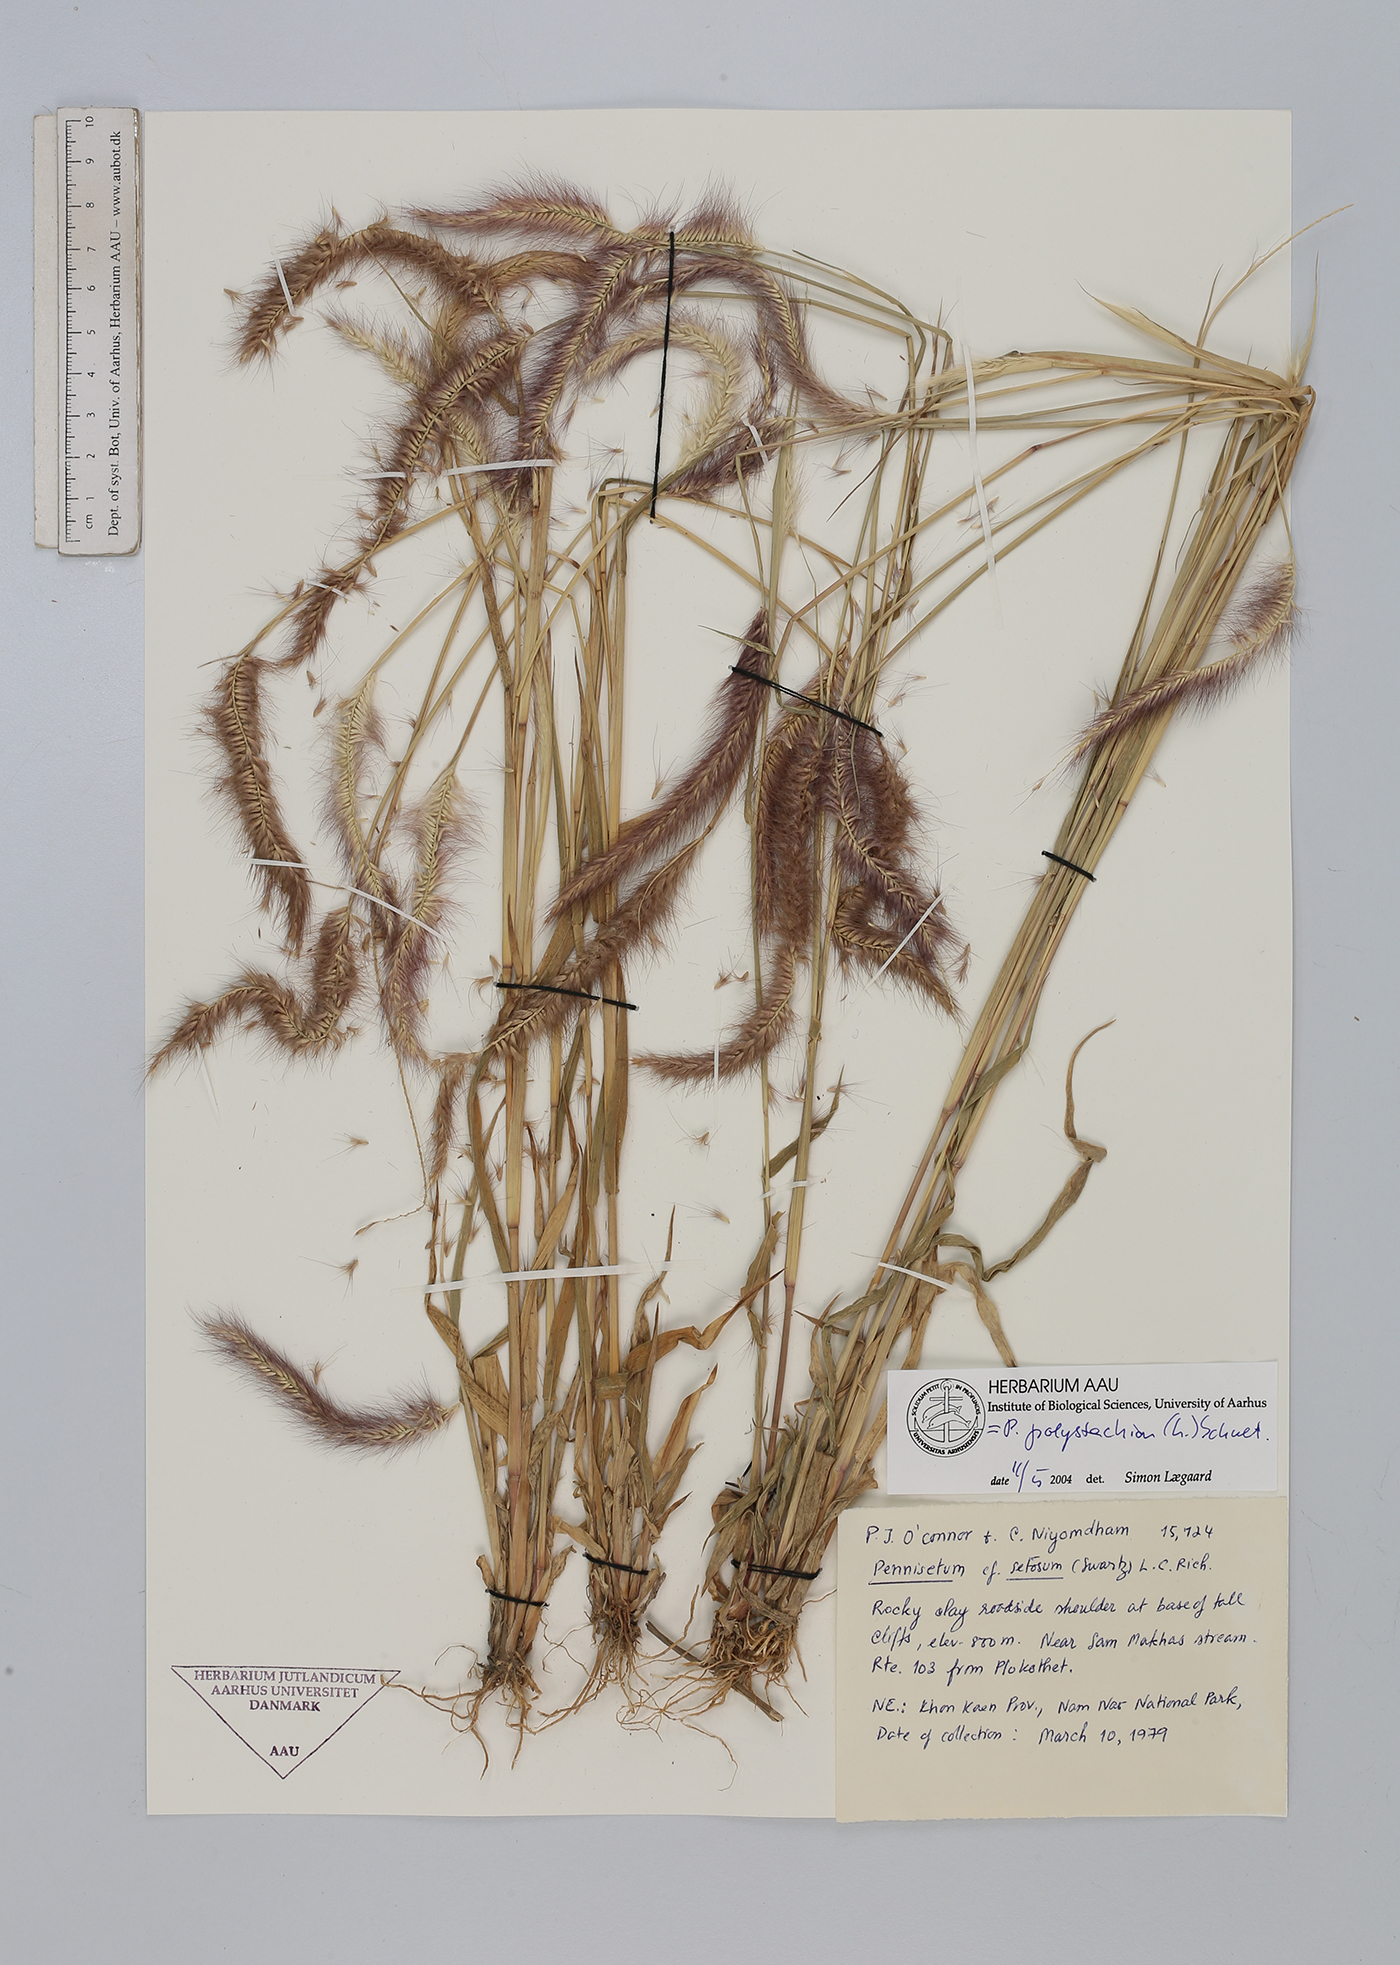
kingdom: Plantae
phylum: Tracheophyta
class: Liliopsida
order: Poales
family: Poaceae
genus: Setaria
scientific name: Setaria parviflora
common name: Knotroot bristle-grass
